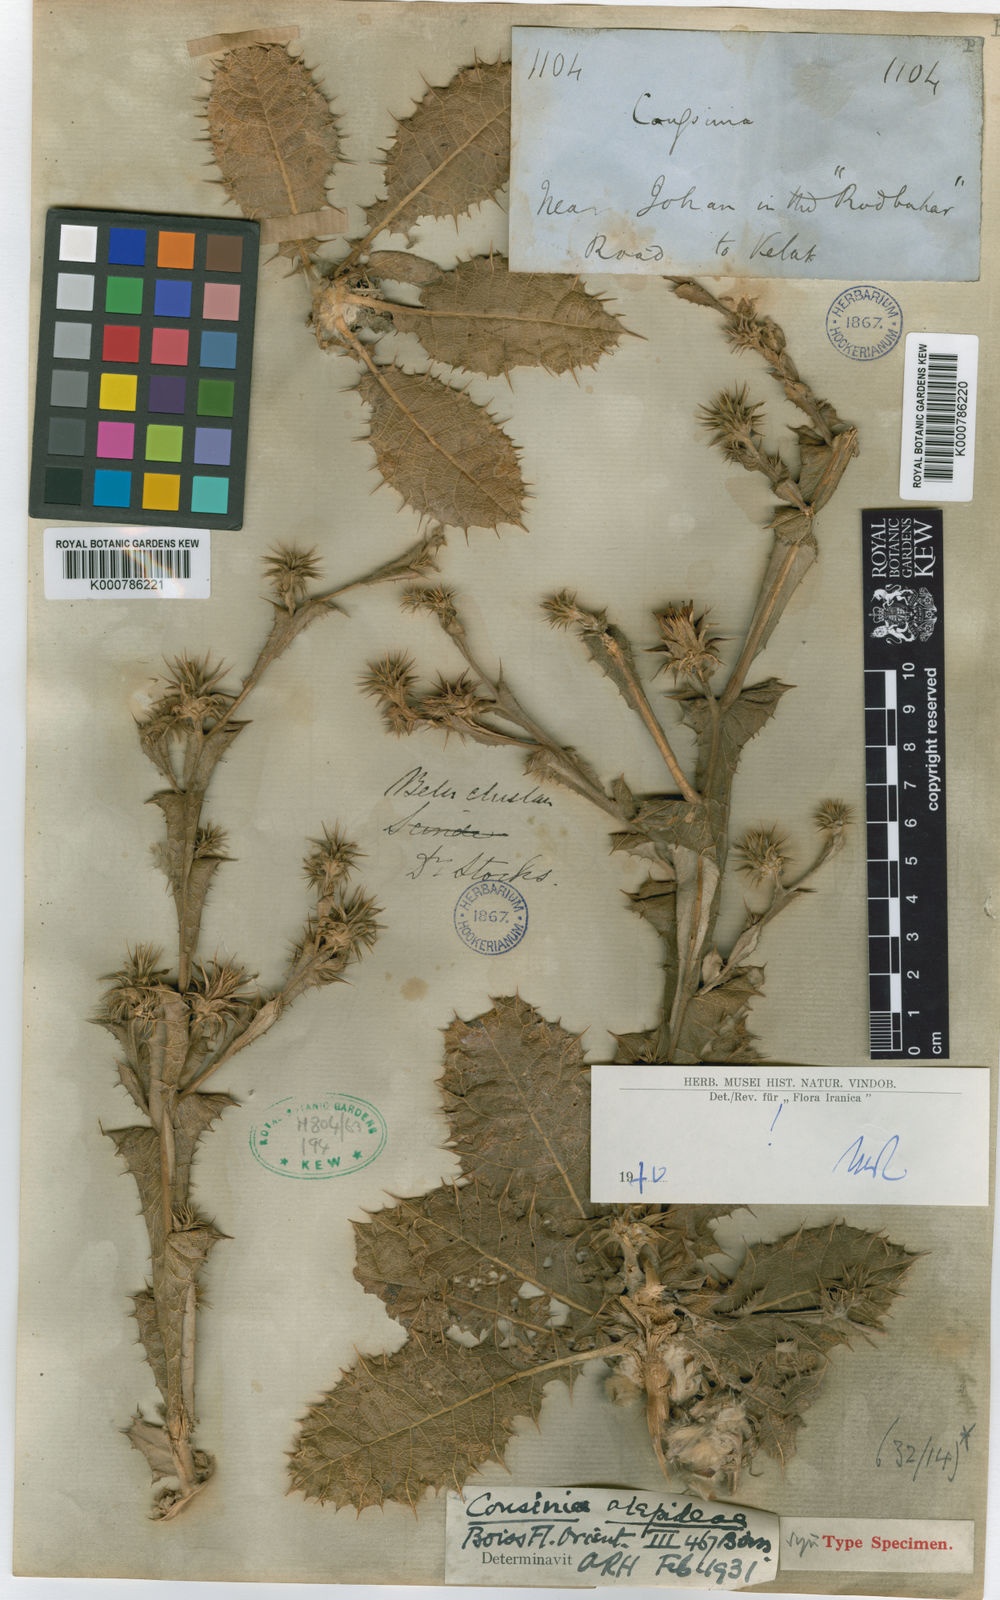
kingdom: Plantae
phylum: Tracheophyta
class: Magnoliopsida
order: Asterales
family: Asteraceae
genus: Cousinia
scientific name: Cousinia alepideae
